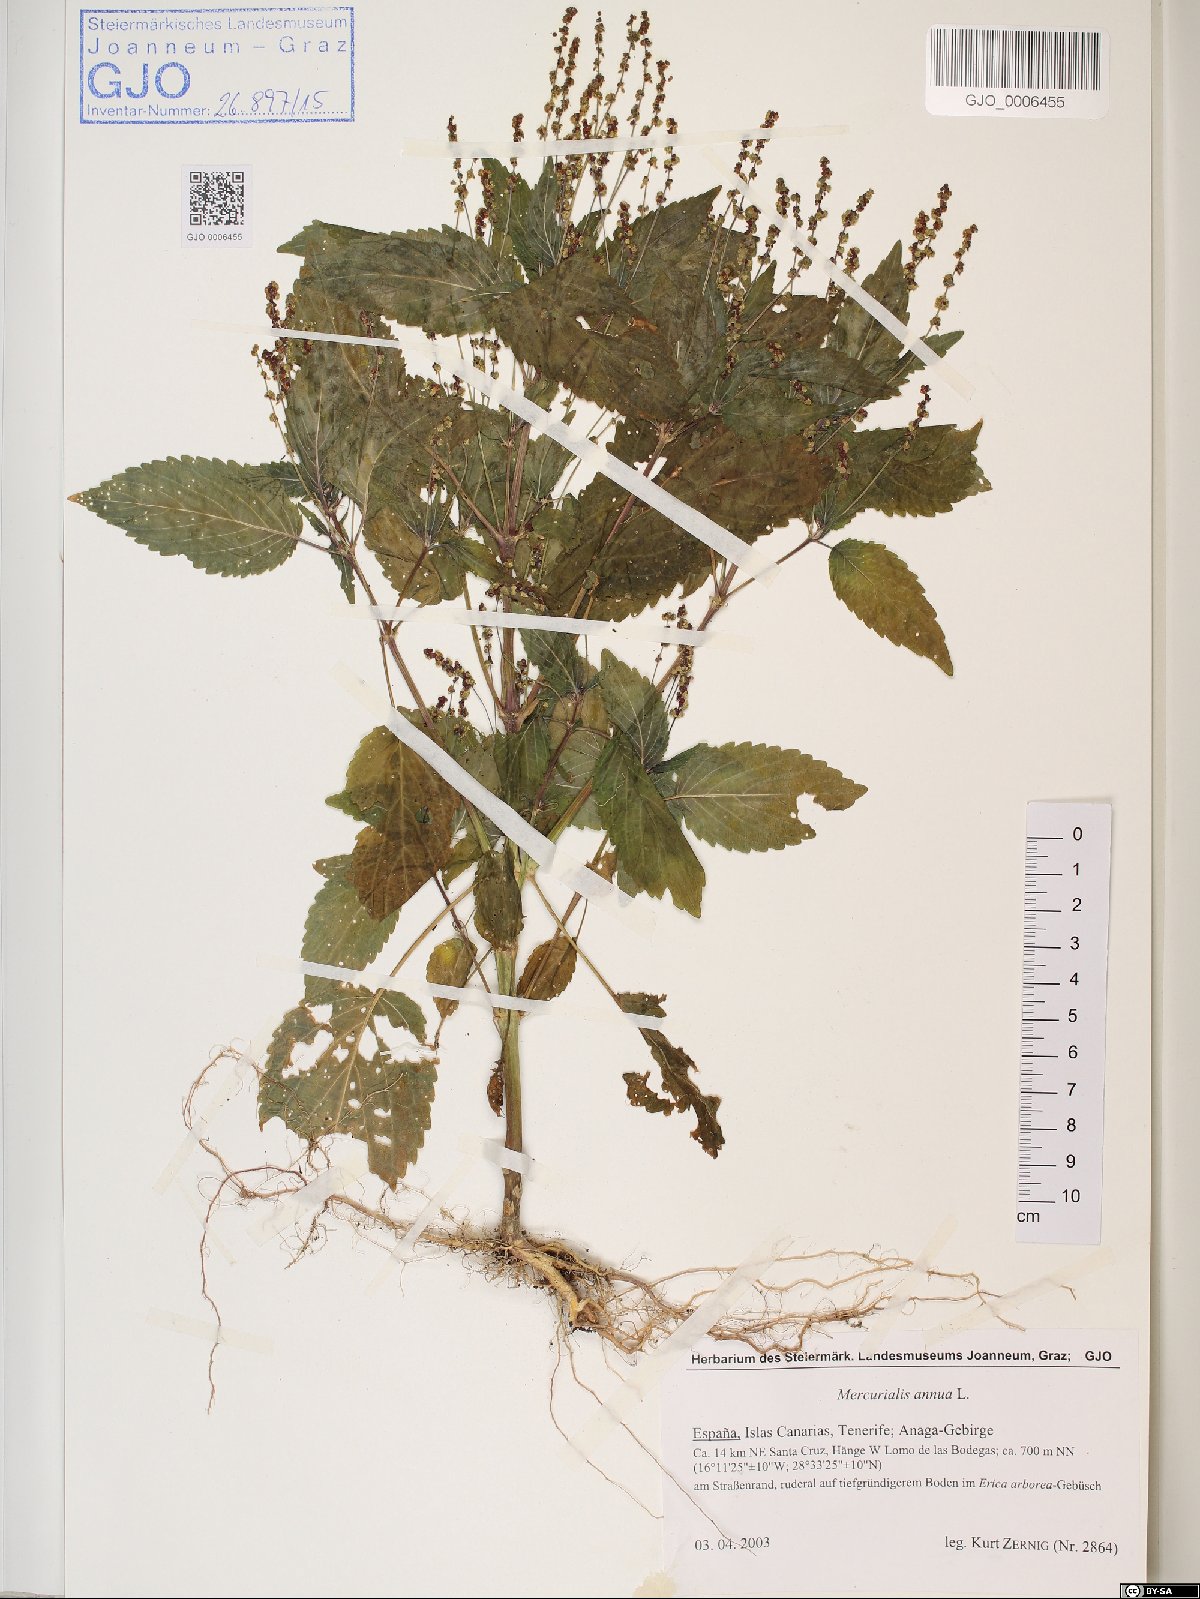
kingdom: Plantae
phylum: Tracheophyta
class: Magnoliopsida
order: Malpighiales
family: Euphorbiaceae
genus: Mercurialis
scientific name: Mercurialis annua
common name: Annual mercury
